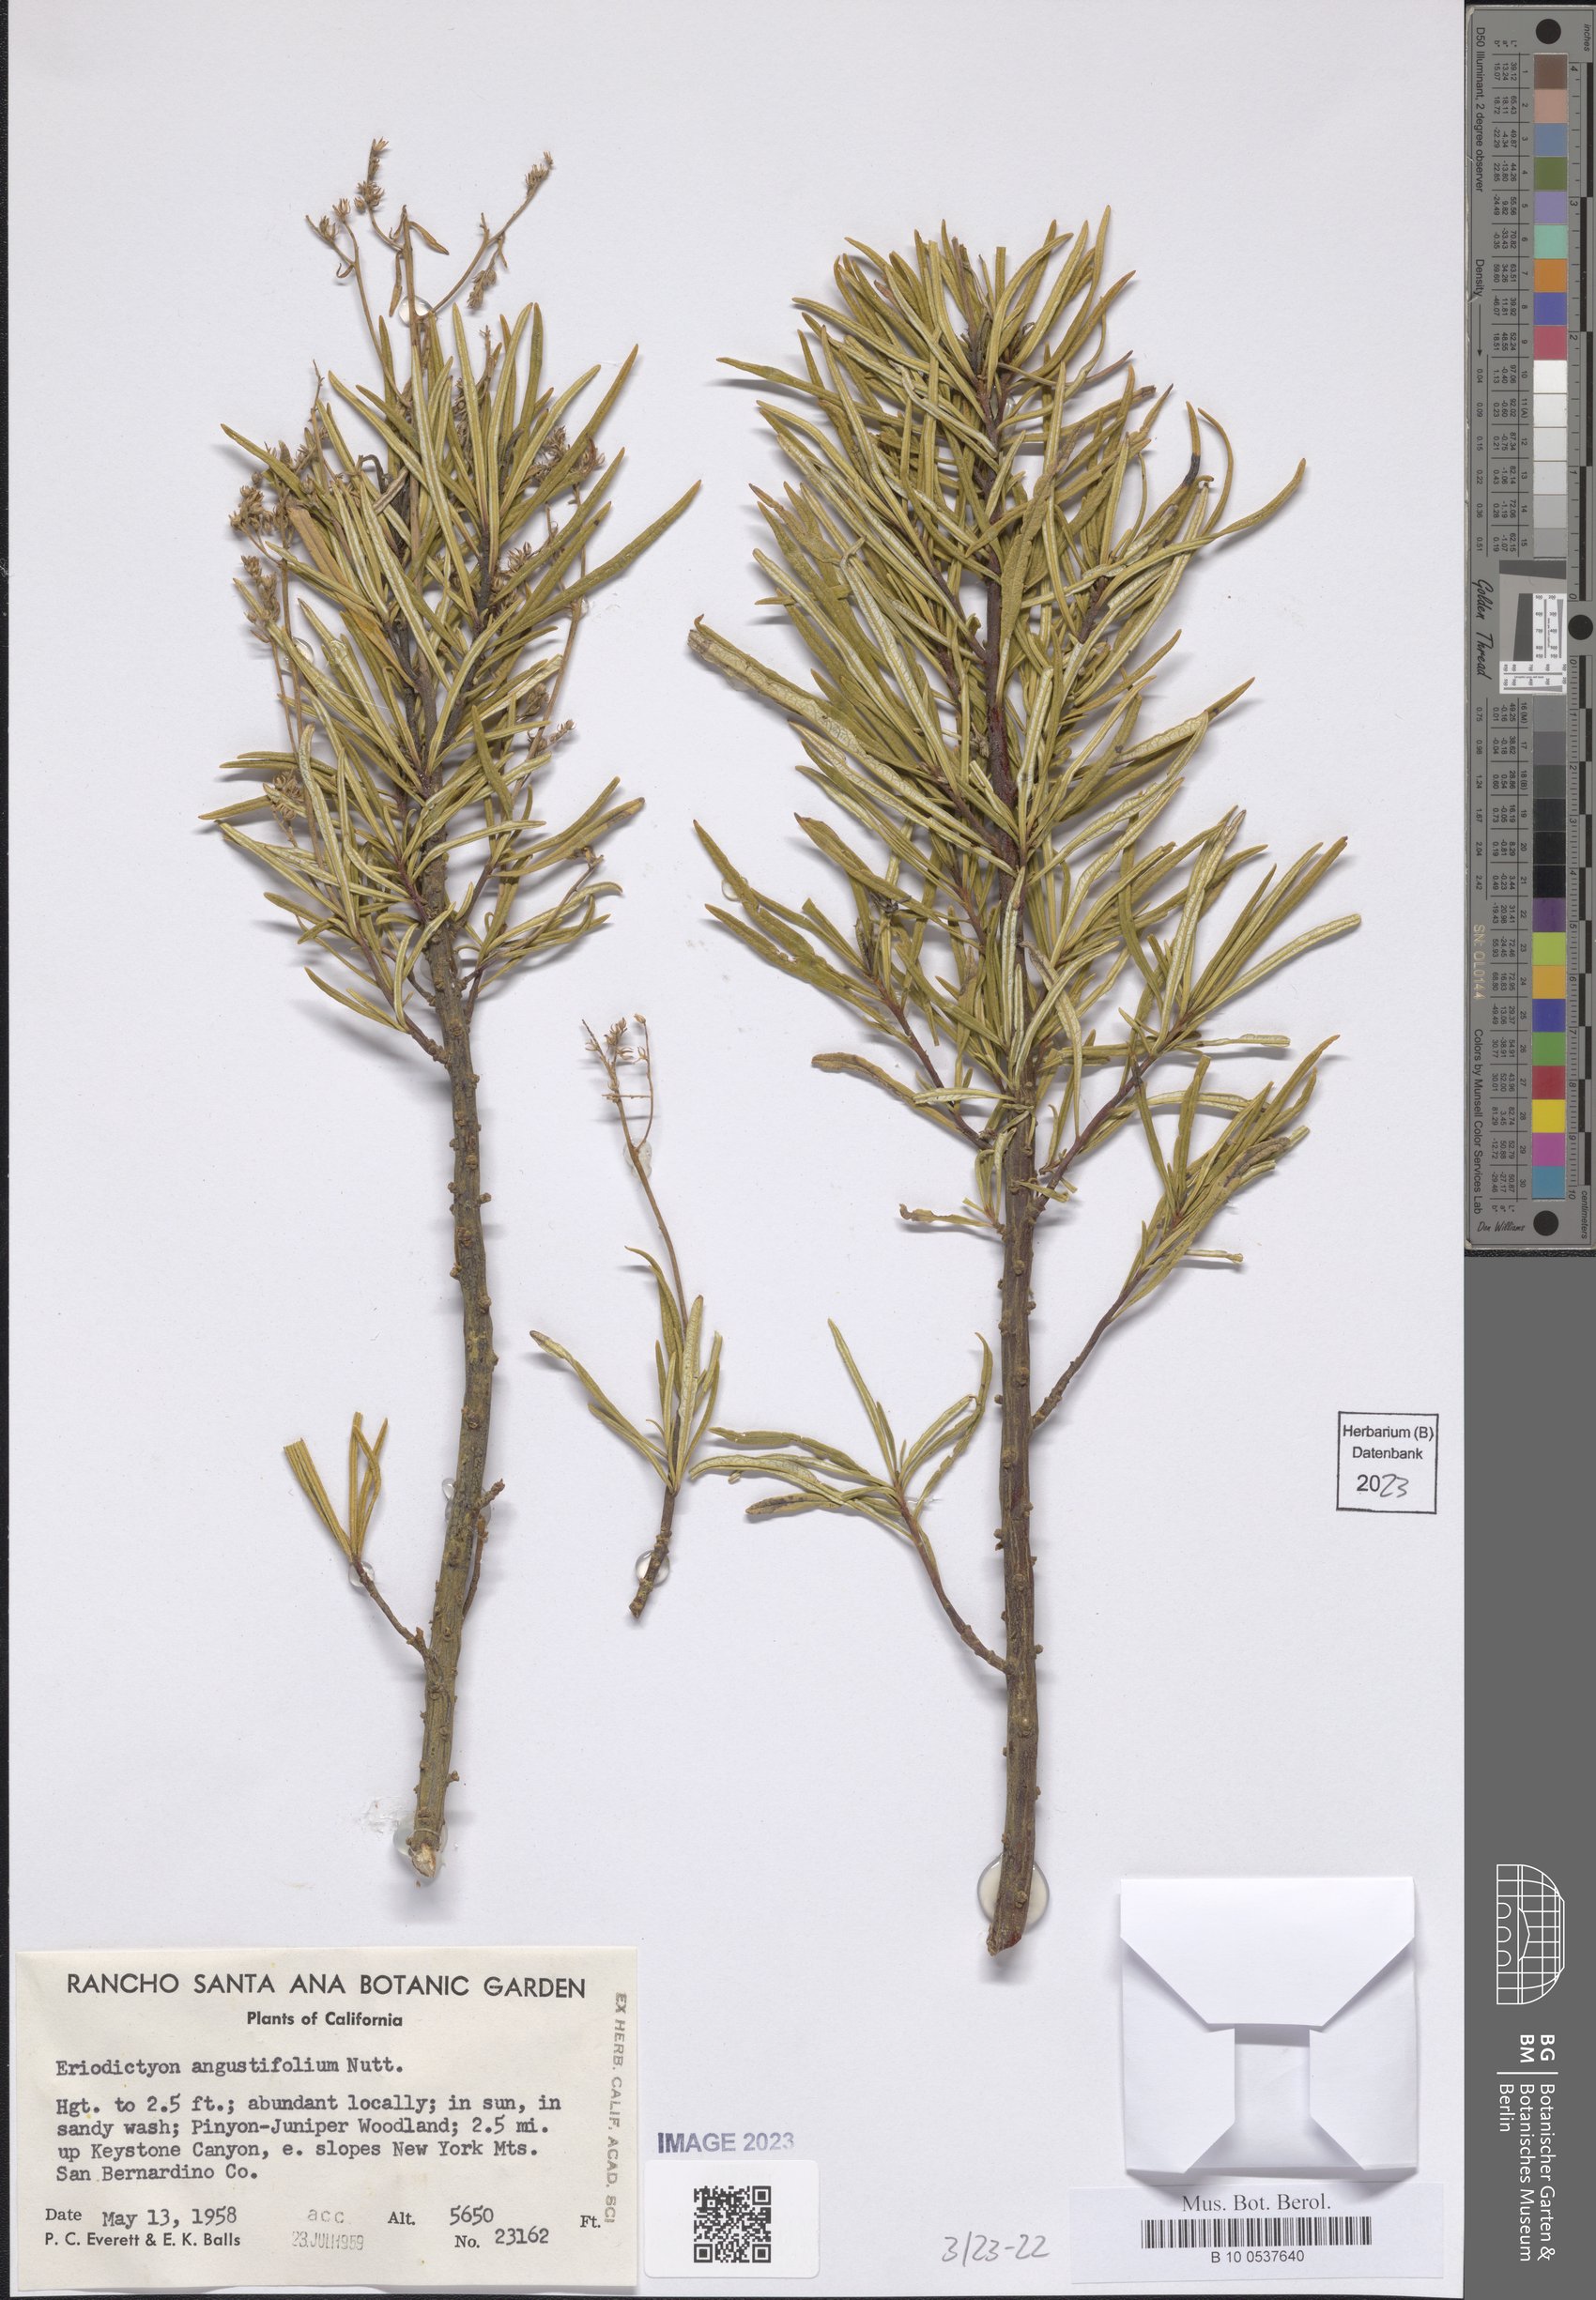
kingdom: Plantae
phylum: Tracheophyta
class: Magnoliopsida
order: Boraginales
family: Namaceae
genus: Eriodictyon
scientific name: Eriodictyon angustifolium
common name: Narrow-leaf yerba santa
